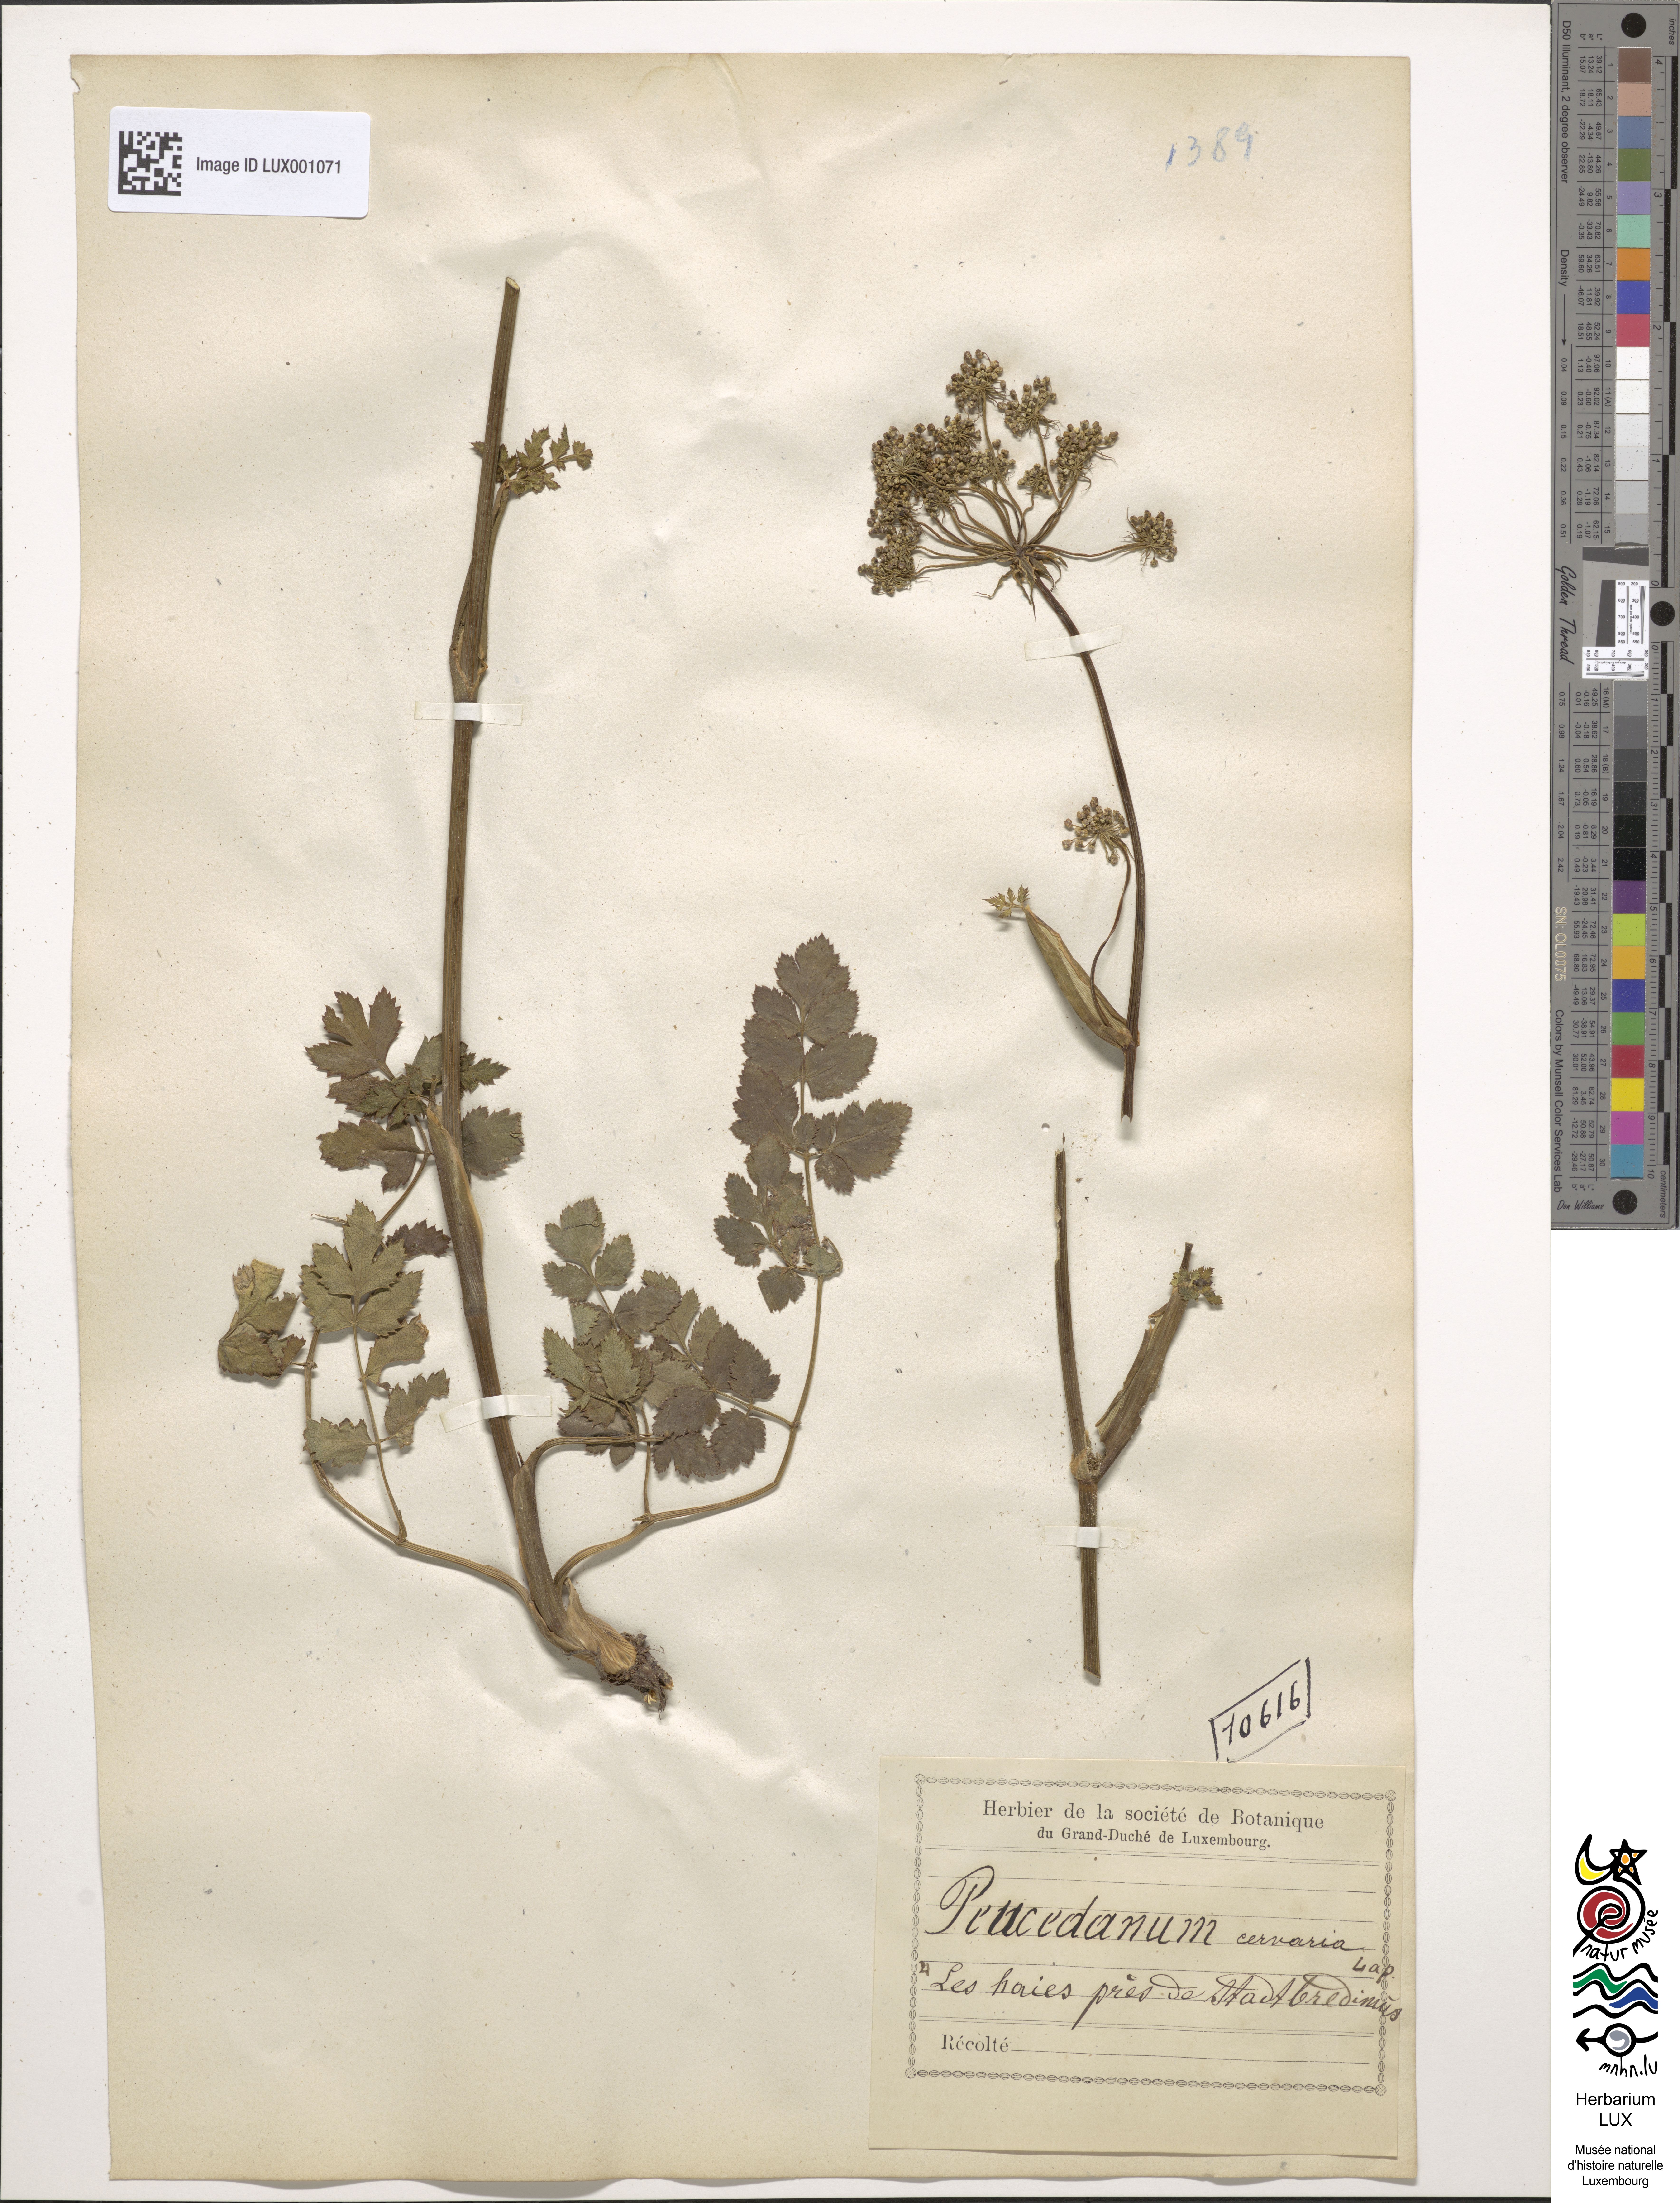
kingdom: Plantae
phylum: Tracheophyta
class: Magnoliopsida
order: Apiales
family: Apiaceae
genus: Cervaria
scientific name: Cervaria rivini
